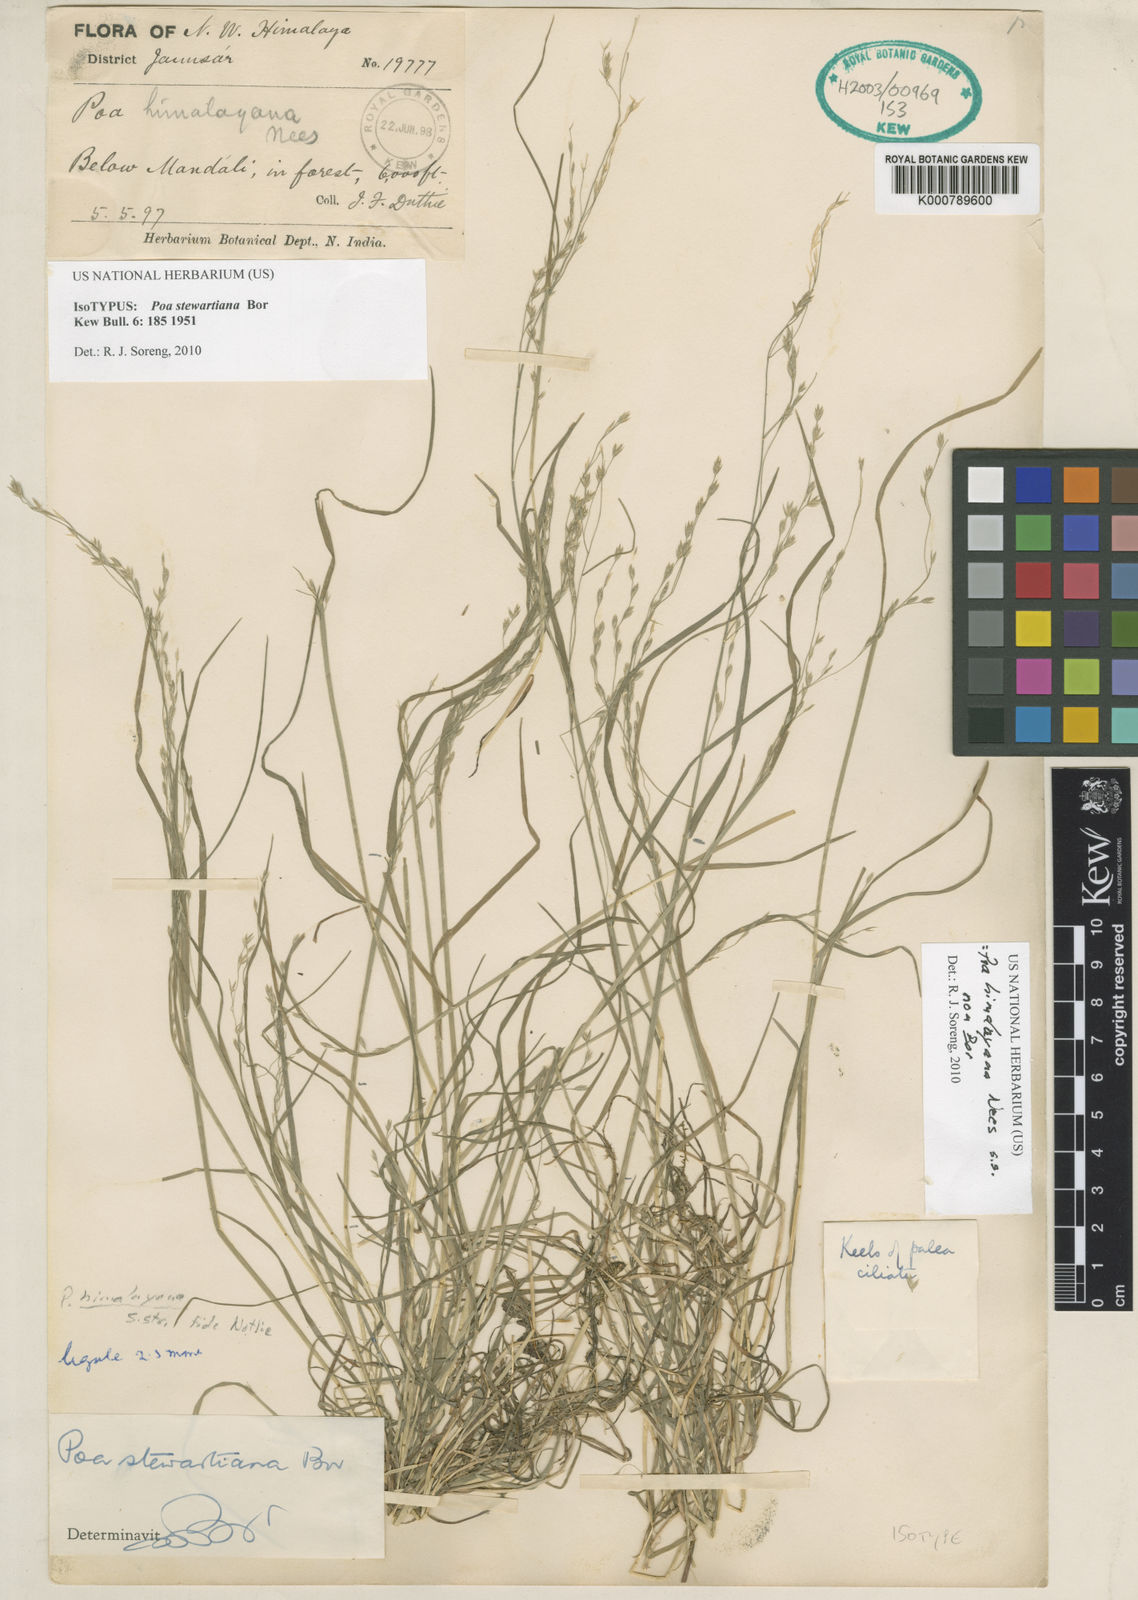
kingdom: Plantae
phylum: Tracheophyta
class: Liliopsida
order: Poales
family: Poaceae
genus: Poa
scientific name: Poa himalayana
